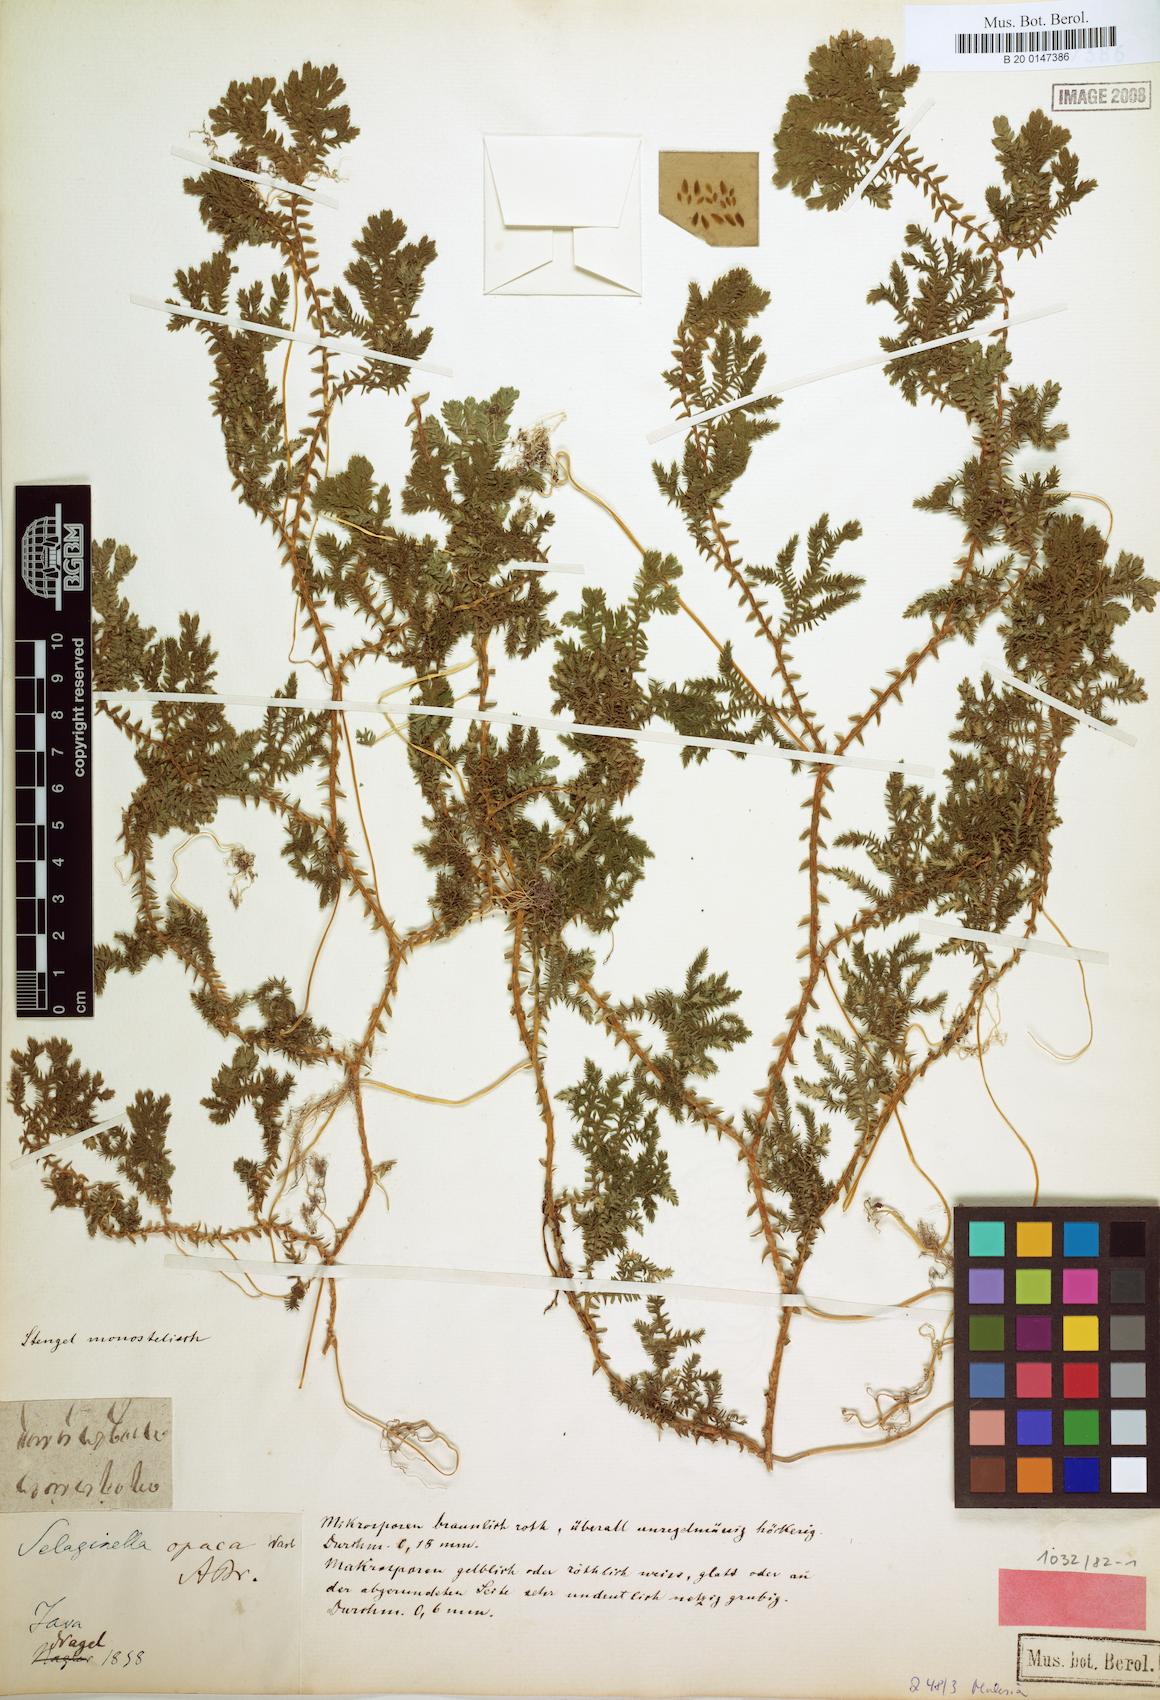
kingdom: Plantae
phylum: Tracheophyta
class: Lycopodiopsida
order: Selaginellales
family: Selaginellaceae
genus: Selaginella
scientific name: Selaginella bisulcata
